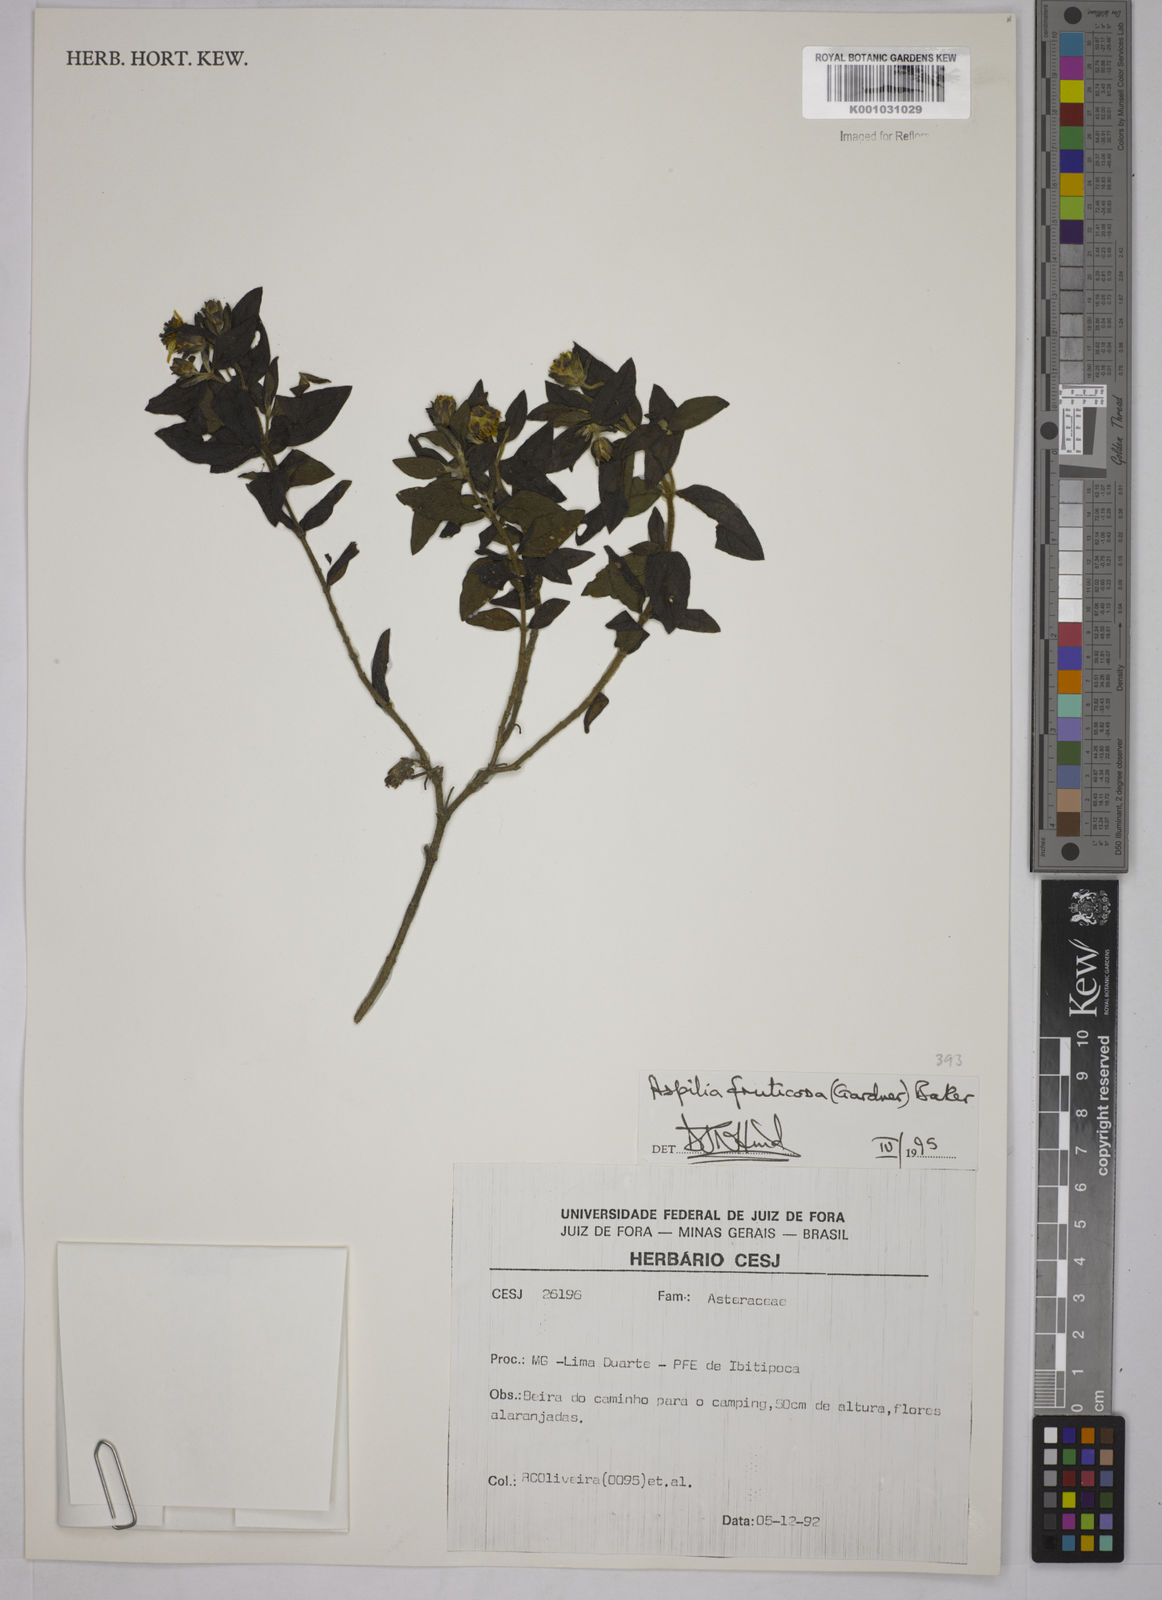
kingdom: Plantae
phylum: Tracheophyta
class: Magnoliopsida
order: Asterales
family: Asteraceae
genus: Wedelia
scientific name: Wedelia frustrata
